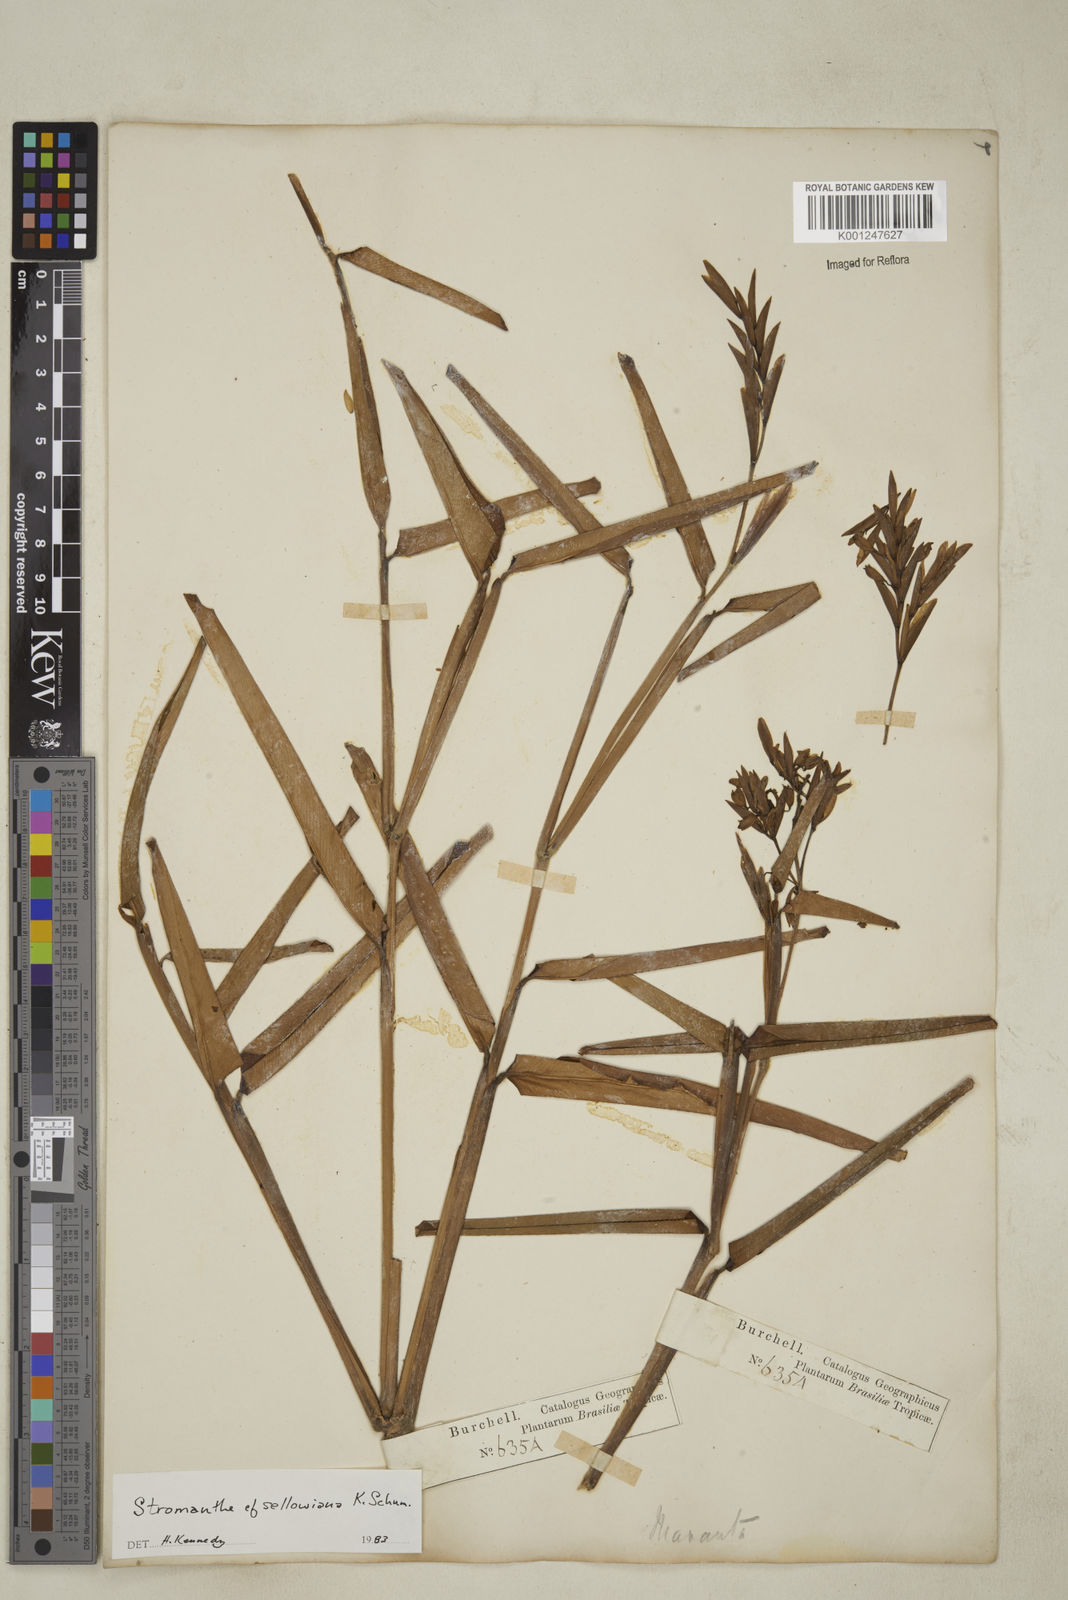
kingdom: Plantae
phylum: Tracheophyta
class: Liliopsida
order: Zingiberales
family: Marantaceae
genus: Stromanthe
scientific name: Stromanthe sellowiana
